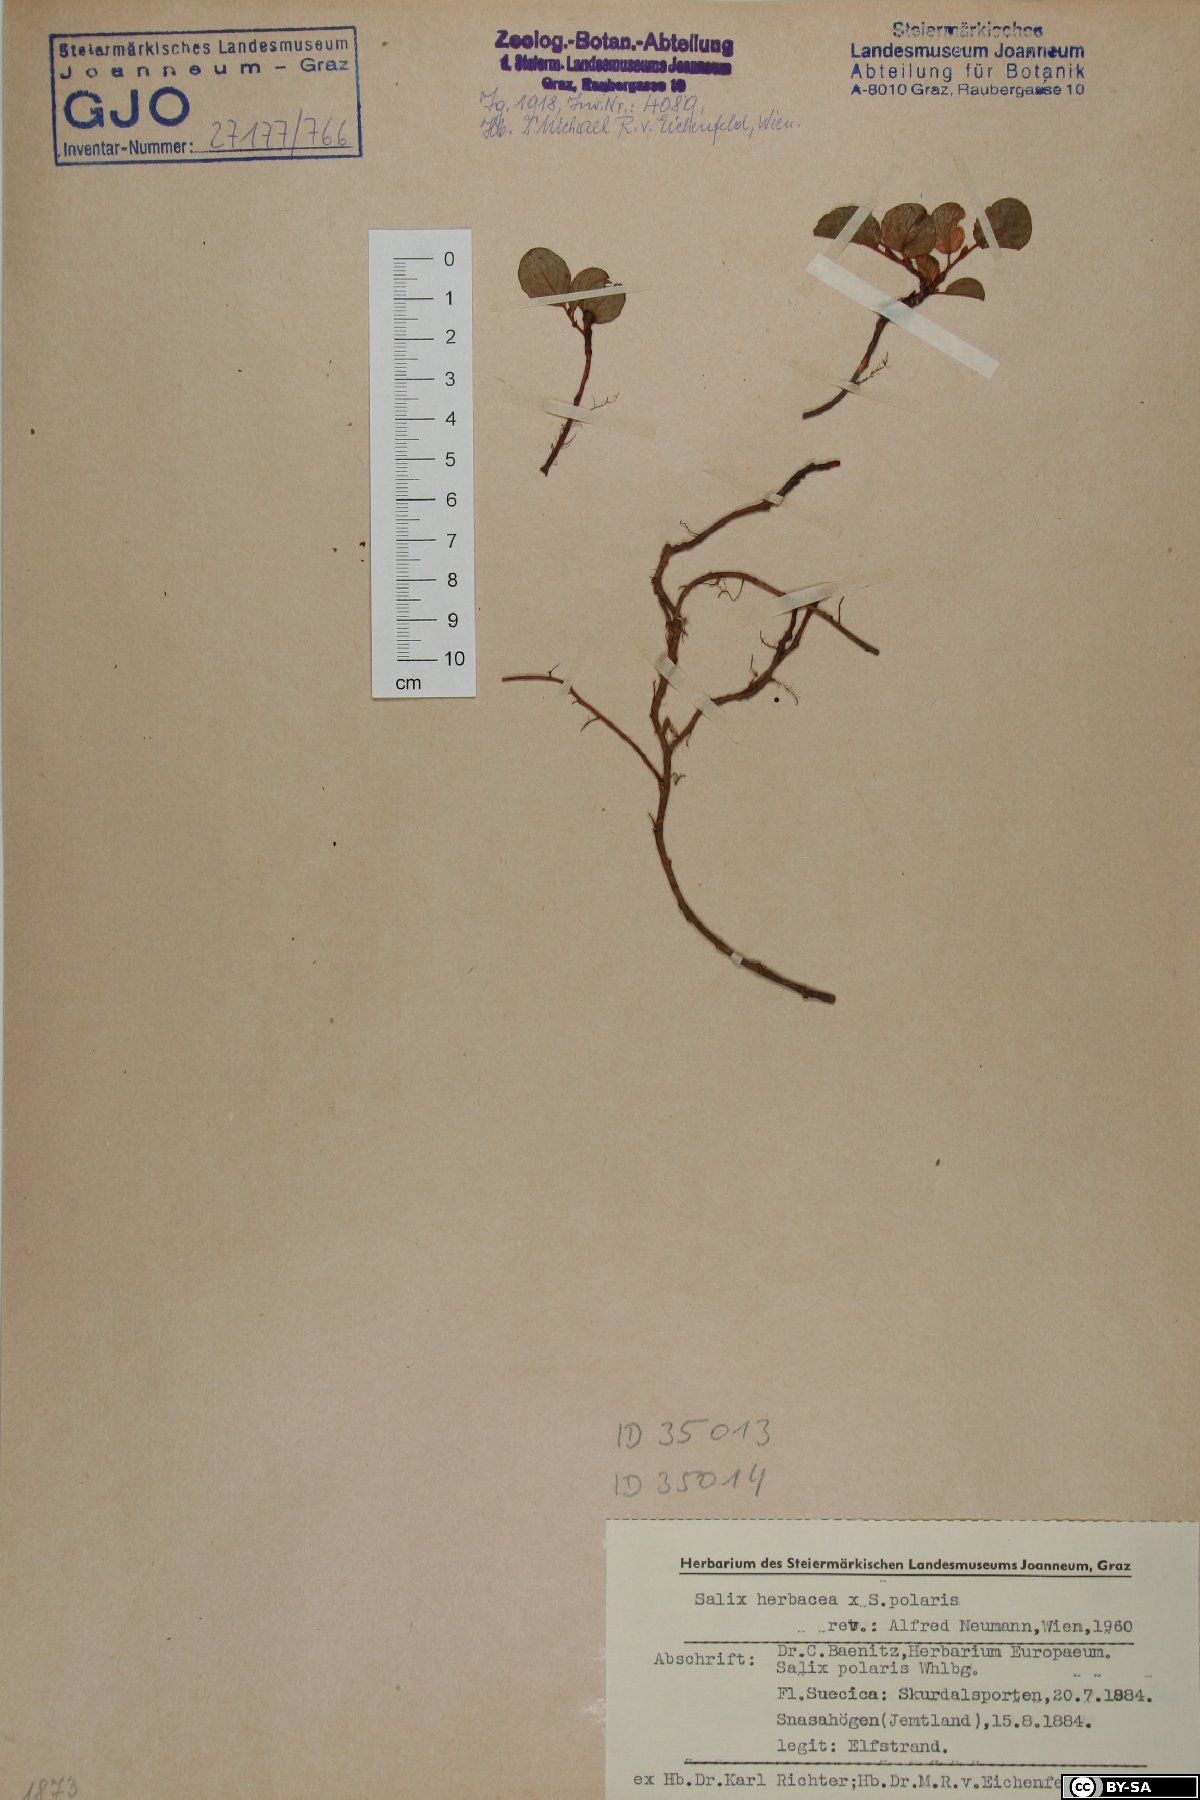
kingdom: Plantae
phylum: Tracheophyta
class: Magnoliopsida
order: Malpighiales
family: Salicaceae
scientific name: Salicaceae
